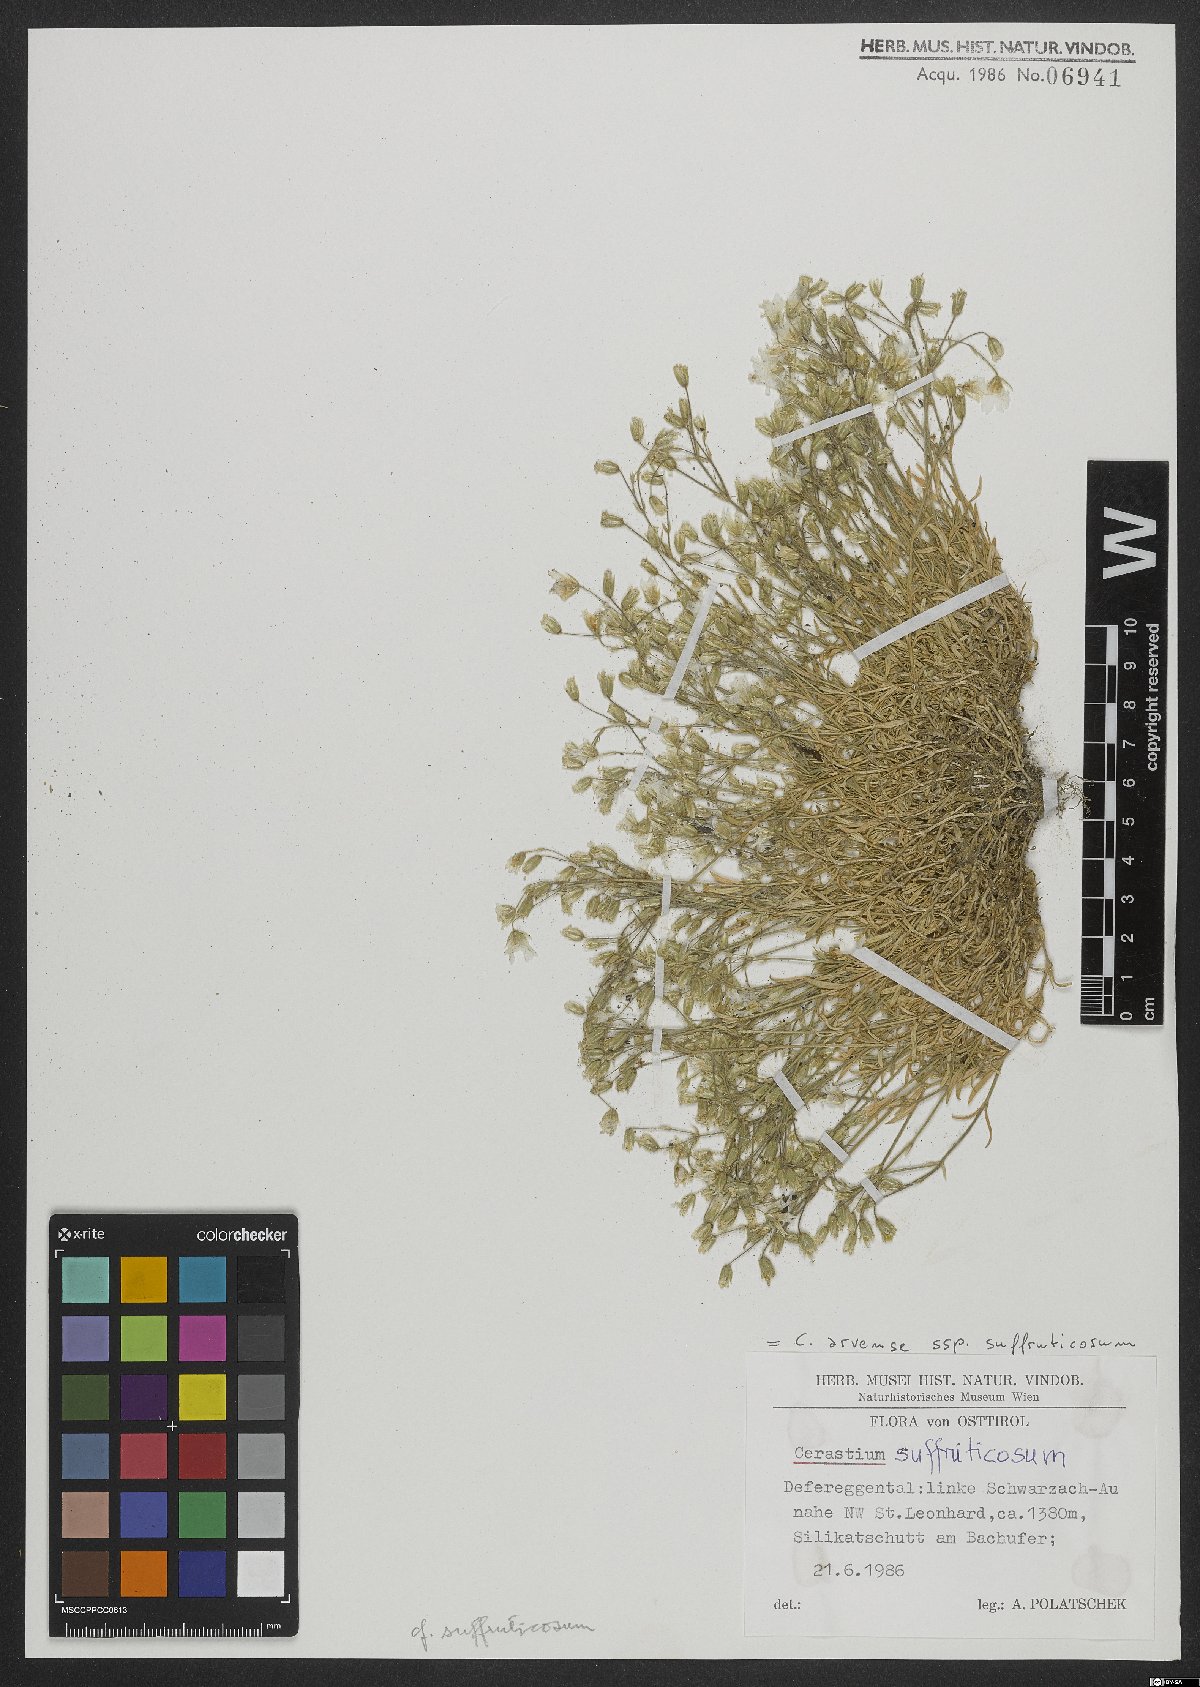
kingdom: Plantae
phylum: Tracheophyta
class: Magnoliopsida
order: Caryophyllales
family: Caryophyllaceae
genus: Cerastium
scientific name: Cerastium arvense
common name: Field mouse-ear
